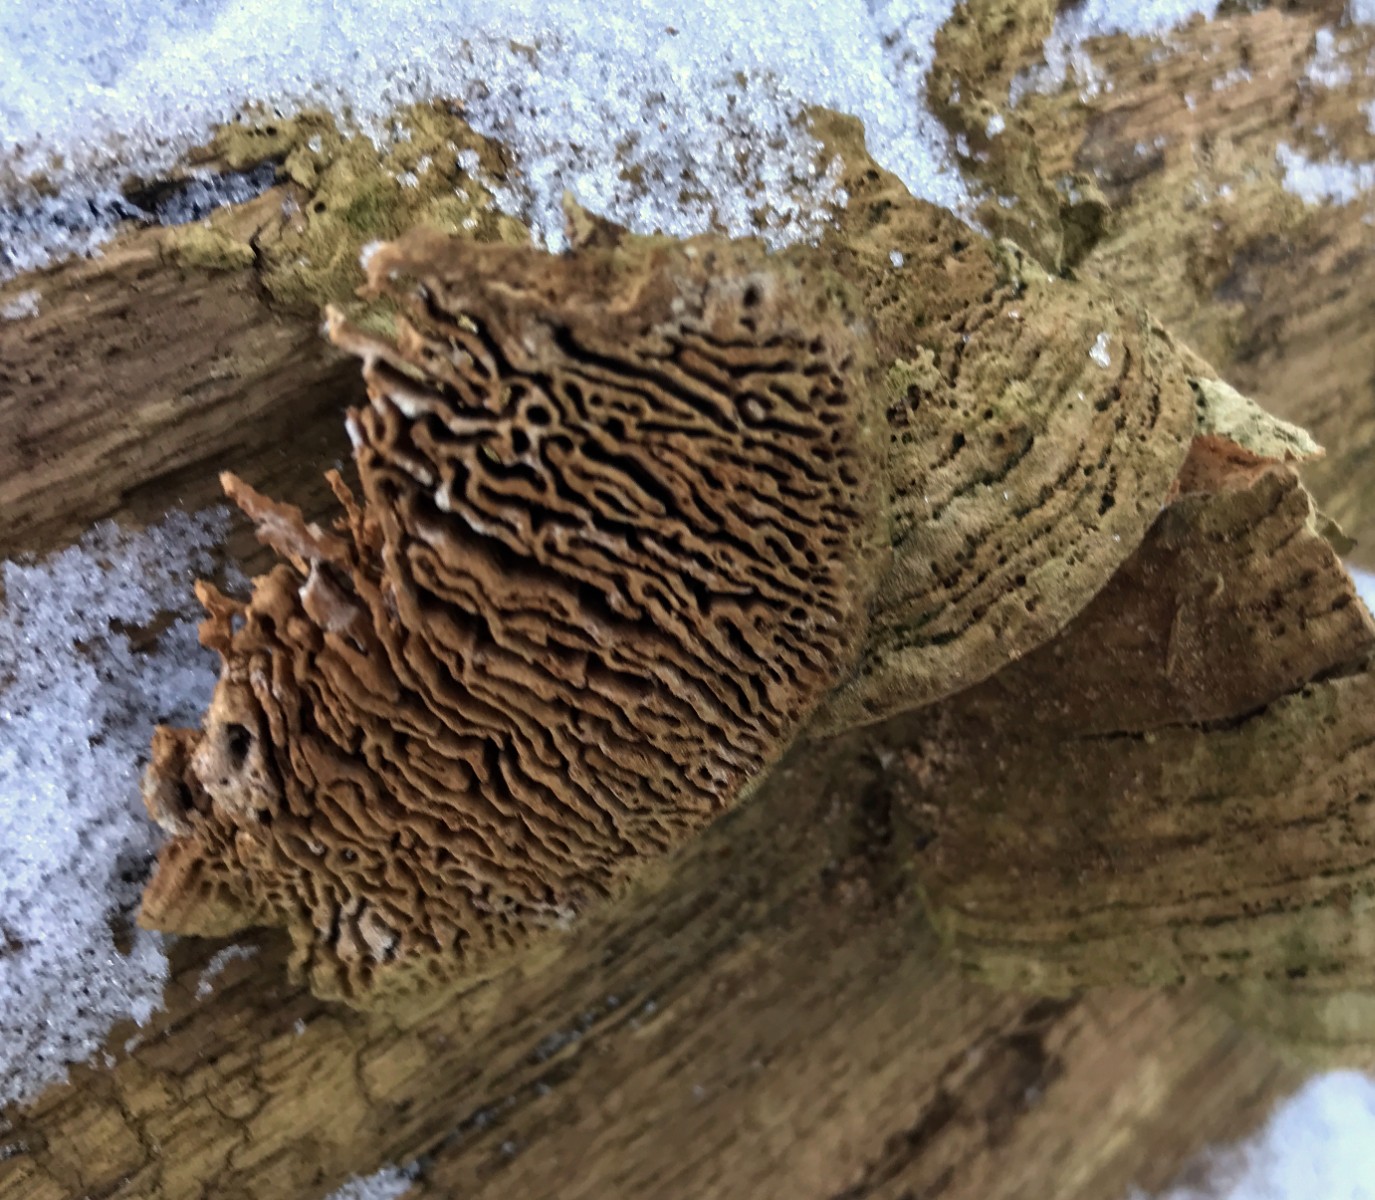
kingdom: Fungi
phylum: Basidiomycota
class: Agaricomycetes
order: Polyporales
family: Fomitopsidaceae
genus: Daedalea
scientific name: Daedalea quercina
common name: ege-labyrintsvamp
